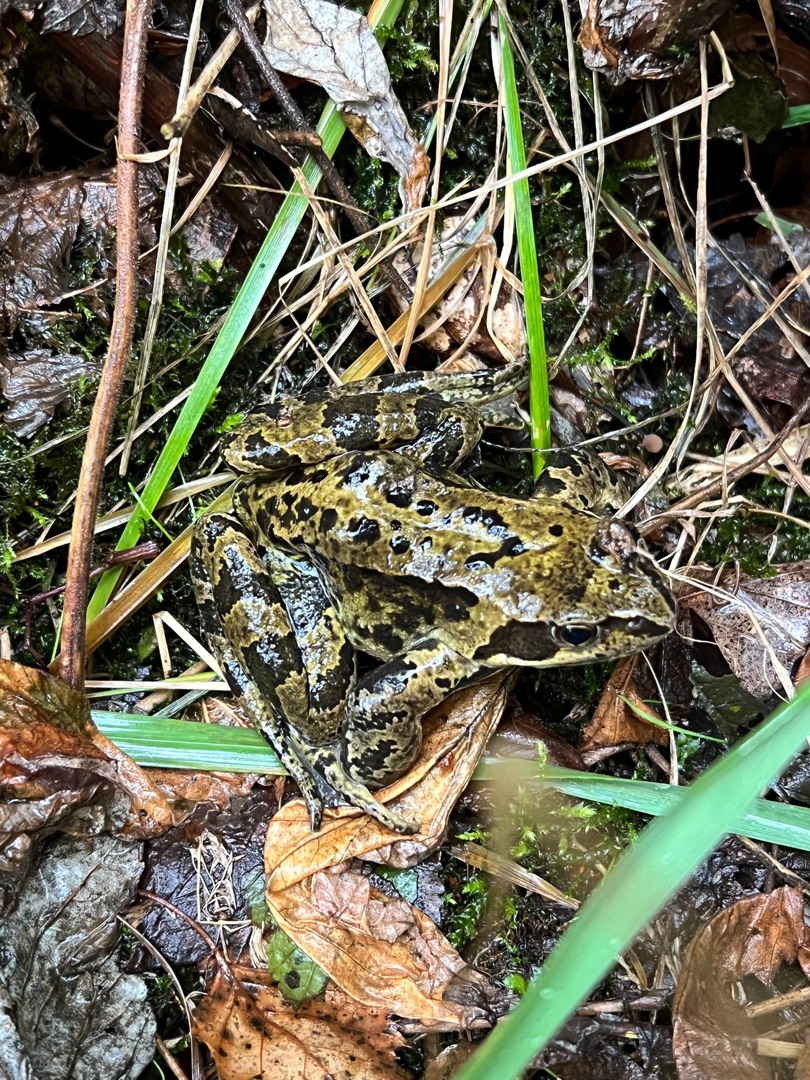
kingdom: Animalia
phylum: Chordata
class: Amphibia
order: Anura
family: Ranidae
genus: Rana
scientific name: Rana temporaria
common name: Butsnudet frø
